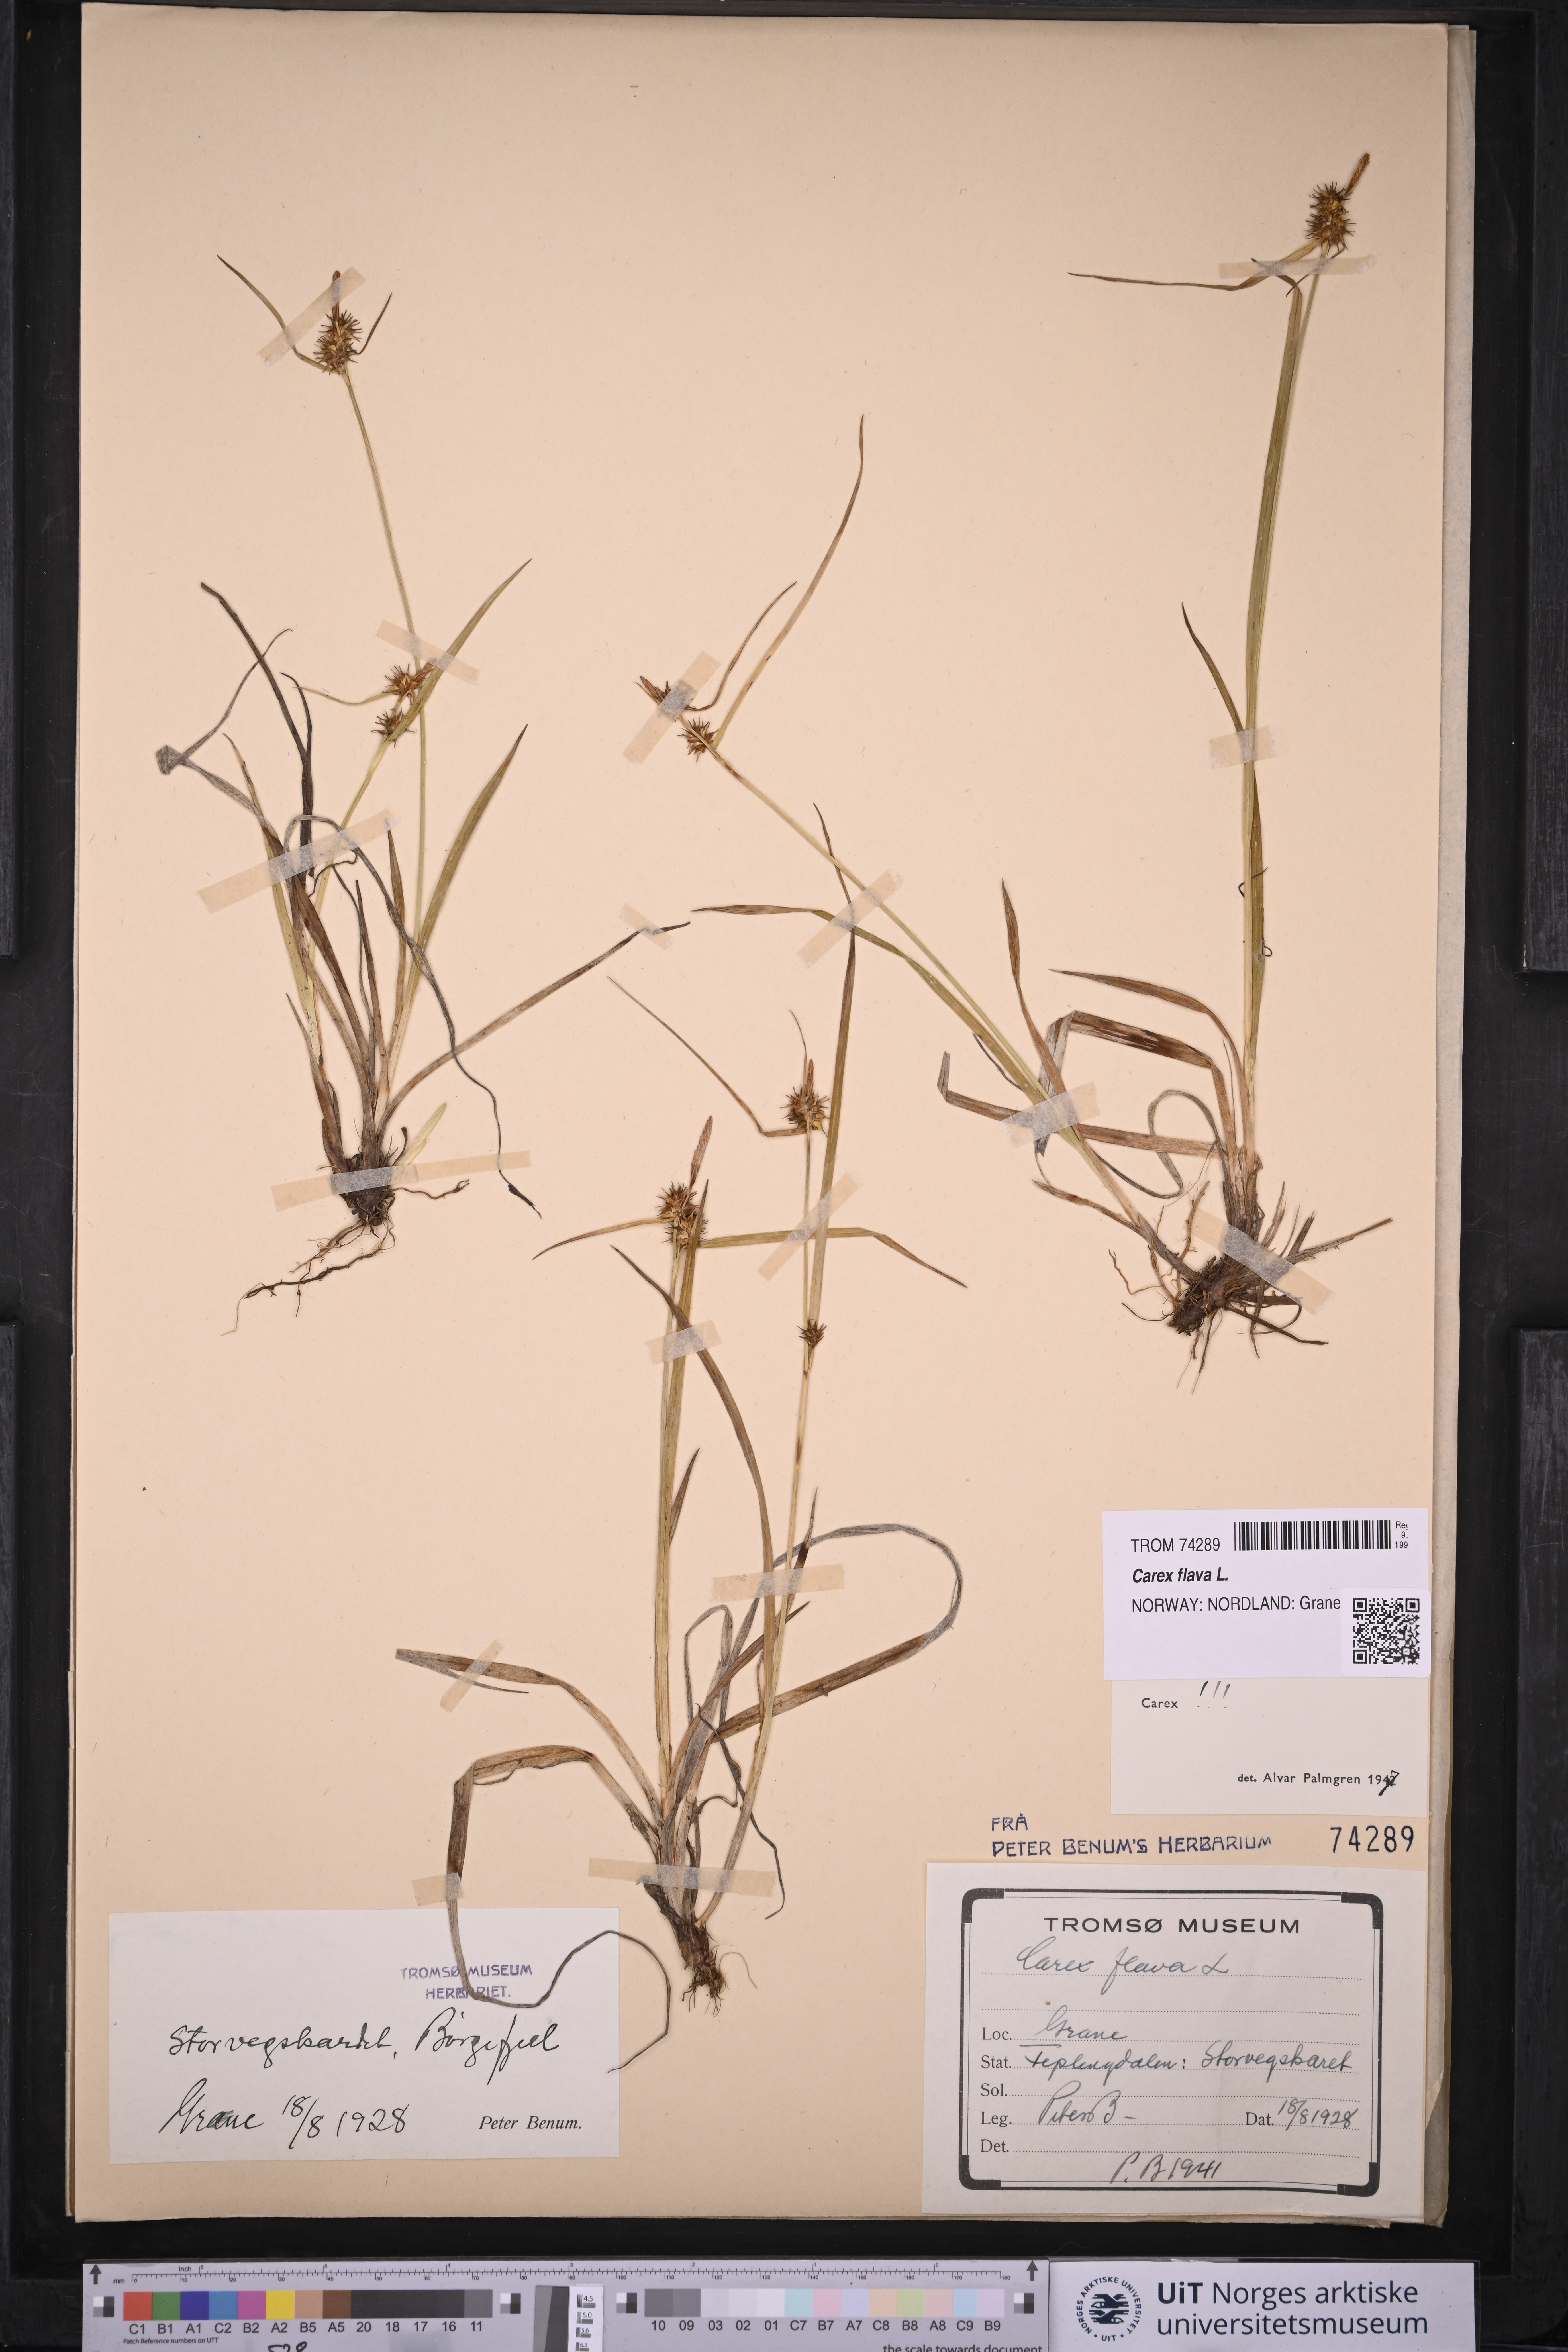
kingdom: Plantae
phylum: Tracheophyta
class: Liliopsida
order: Poales
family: Cyperaceae
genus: Carex
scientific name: Carex flava
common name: Large yellow-sedge
